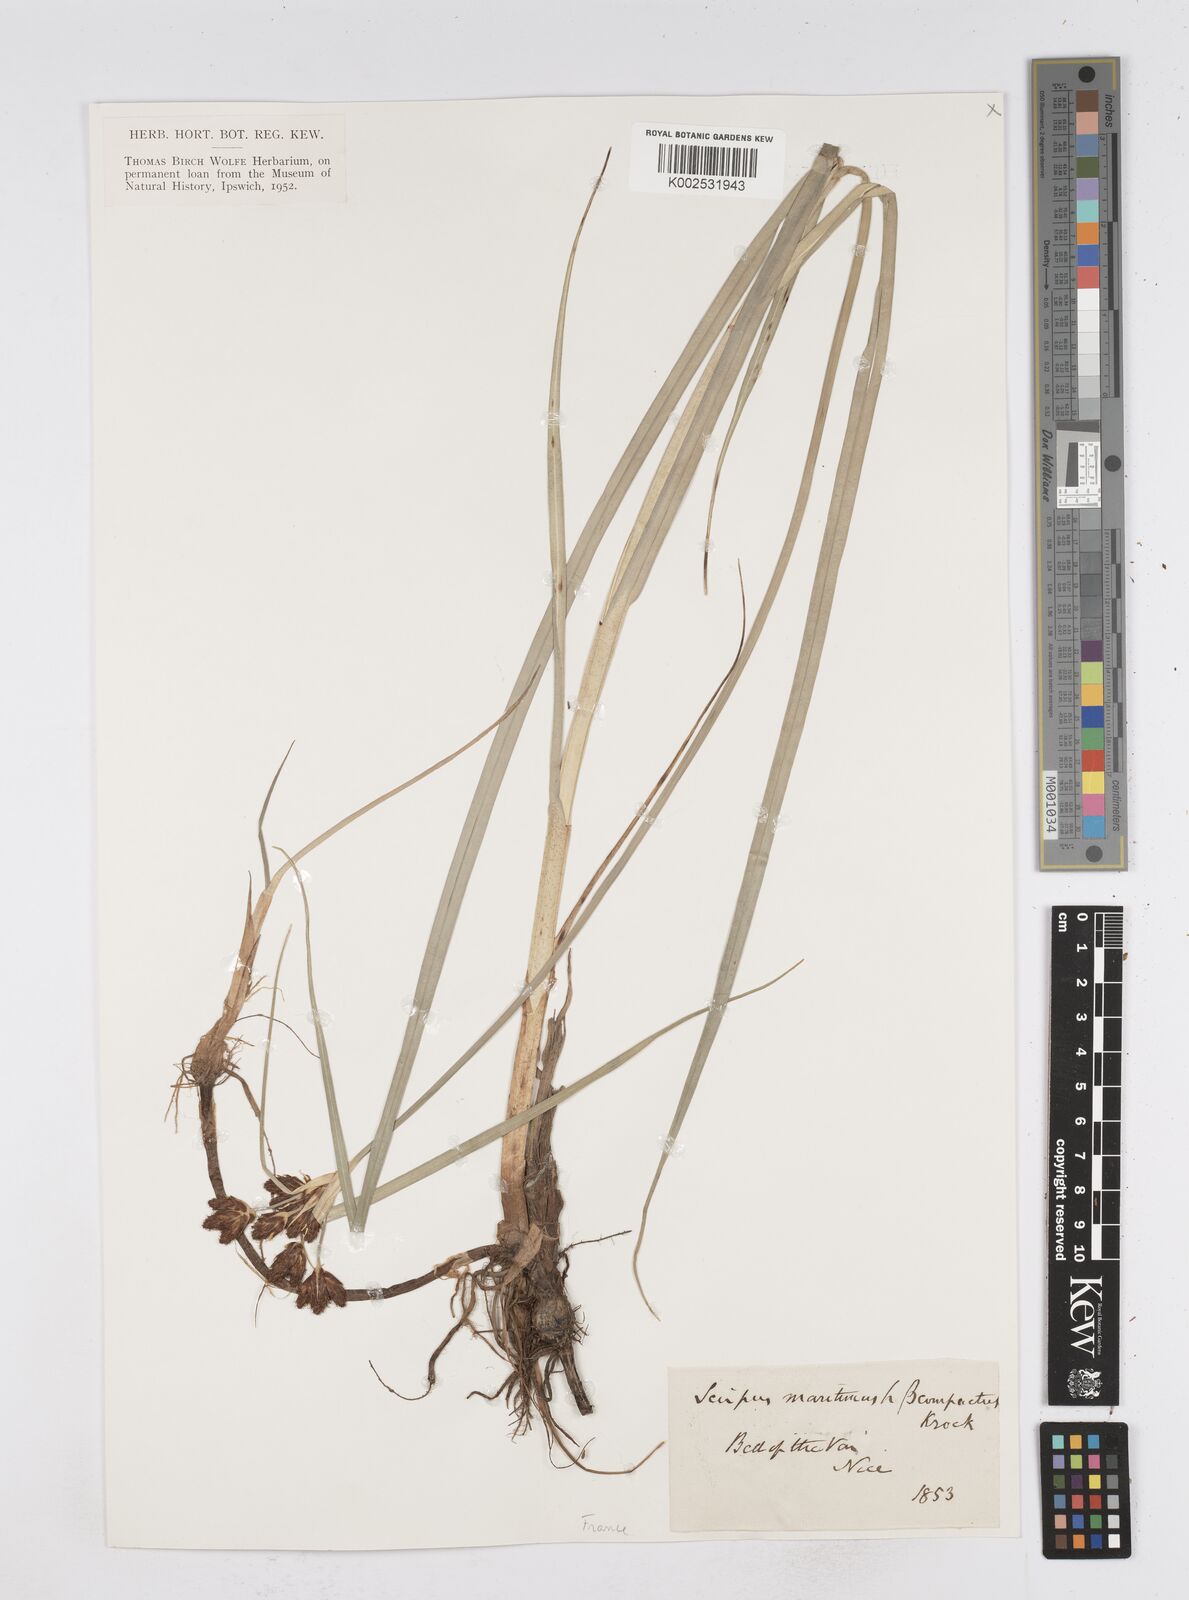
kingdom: Plantae
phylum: Tracheophyta
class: Liliopsida
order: Poales
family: Cyperaceae
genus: Bolboschoenus
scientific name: Bolboschoenus maritimus
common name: Sea club-rush
